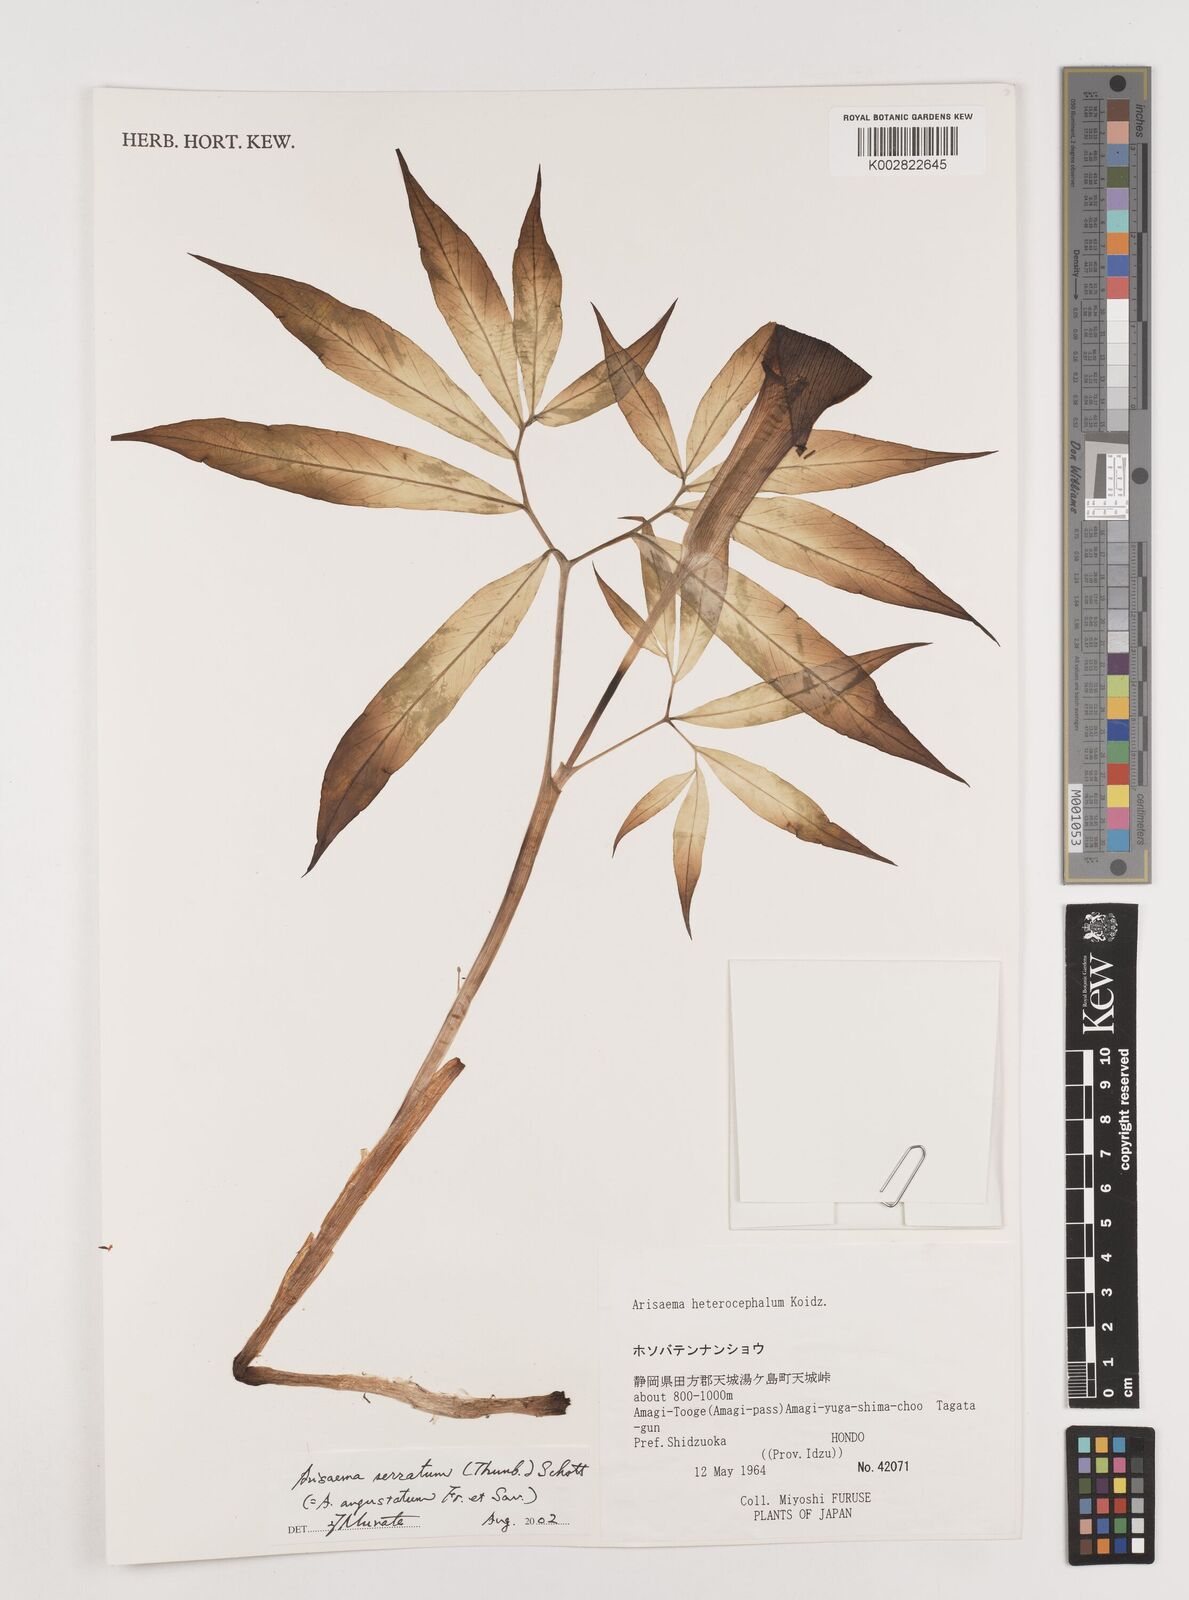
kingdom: Plantae
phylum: Tracheophyta
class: Liliopsida
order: Alismatales
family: Araceae
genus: Arisaema
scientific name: Arisaema serratum
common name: Japanese arisaema
